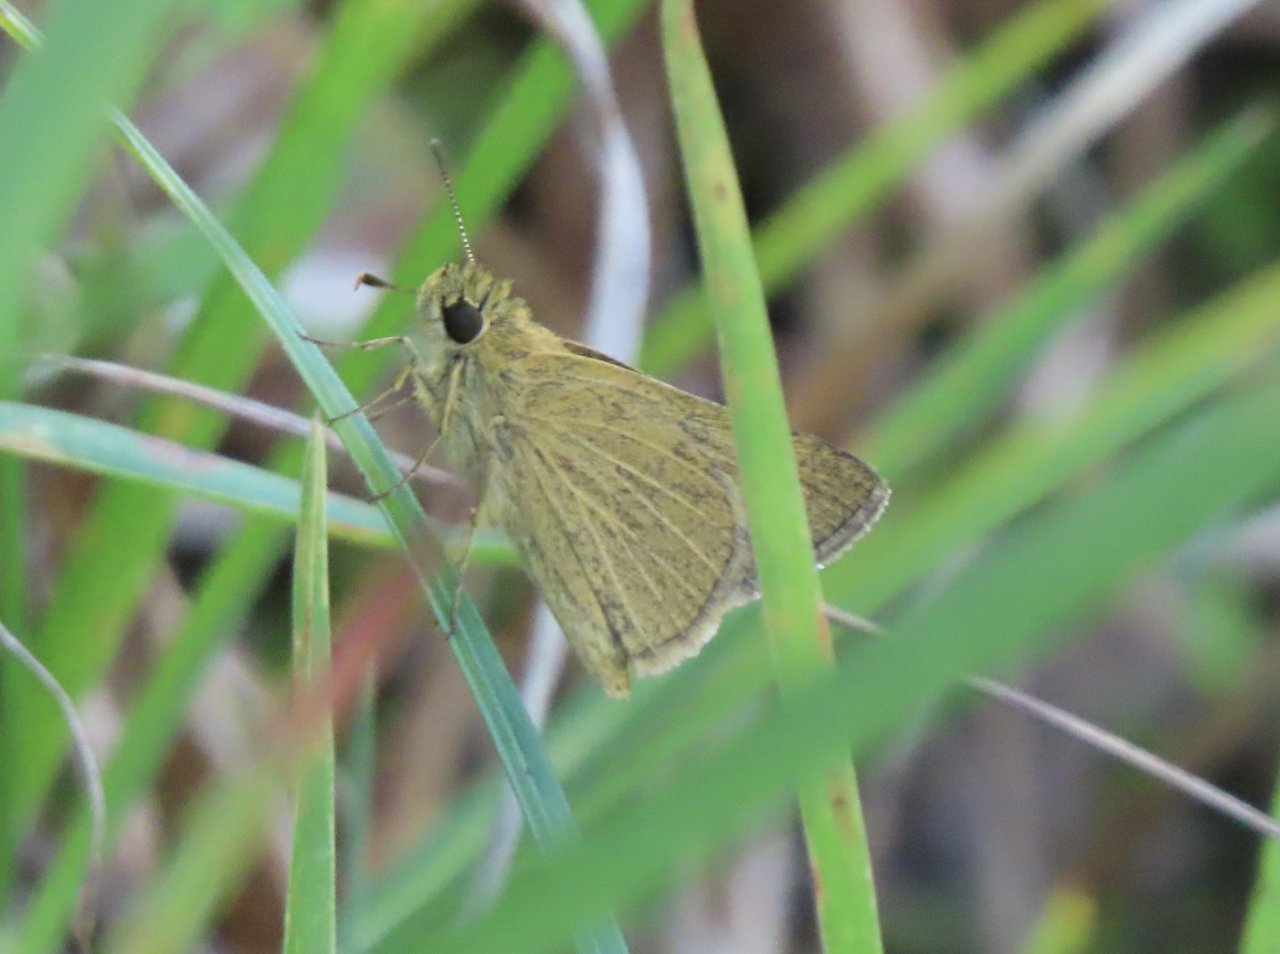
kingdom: Animalia
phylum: Arthropoda
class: Insecta
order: Lepidoptera
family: Hesperiidae
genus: Nastra
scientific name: Nastra lherminier
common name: Swarthy Skipper
